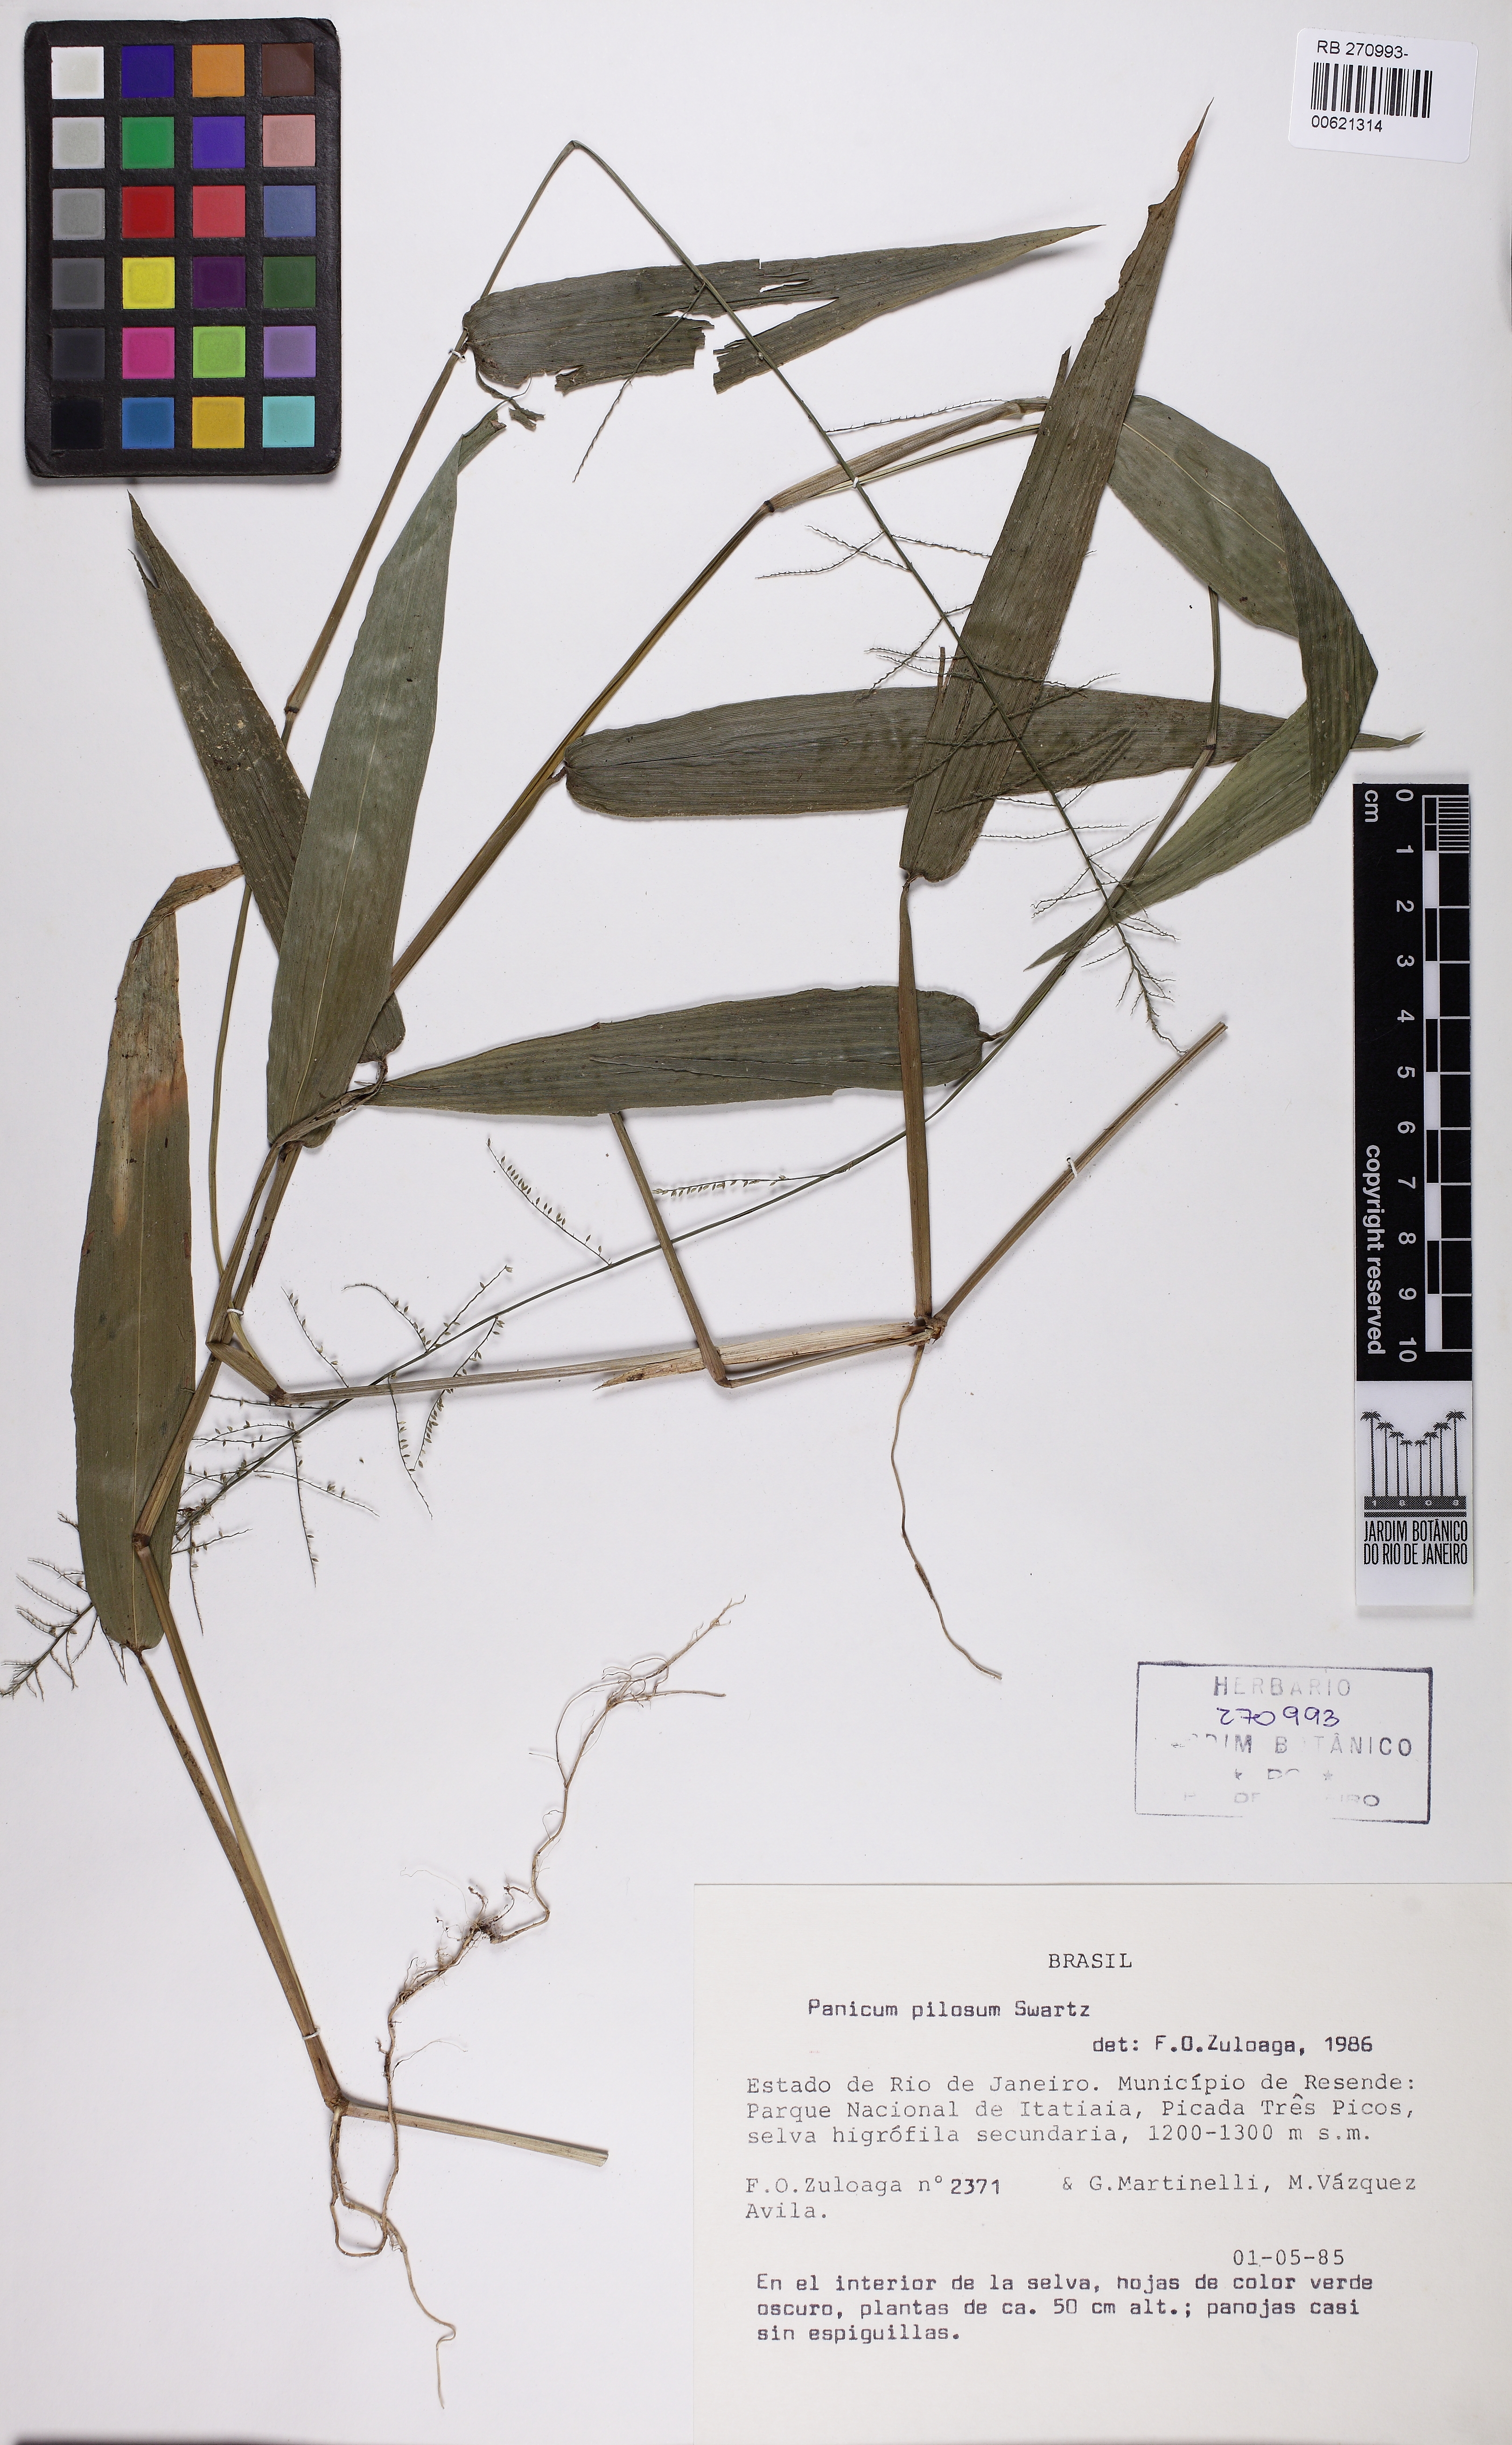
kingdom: Plantae
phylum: Tracheophyta
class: Liliopsida
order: Poales
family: Poaceae
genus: Rugoloa
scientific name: Rugoloa pilosa
